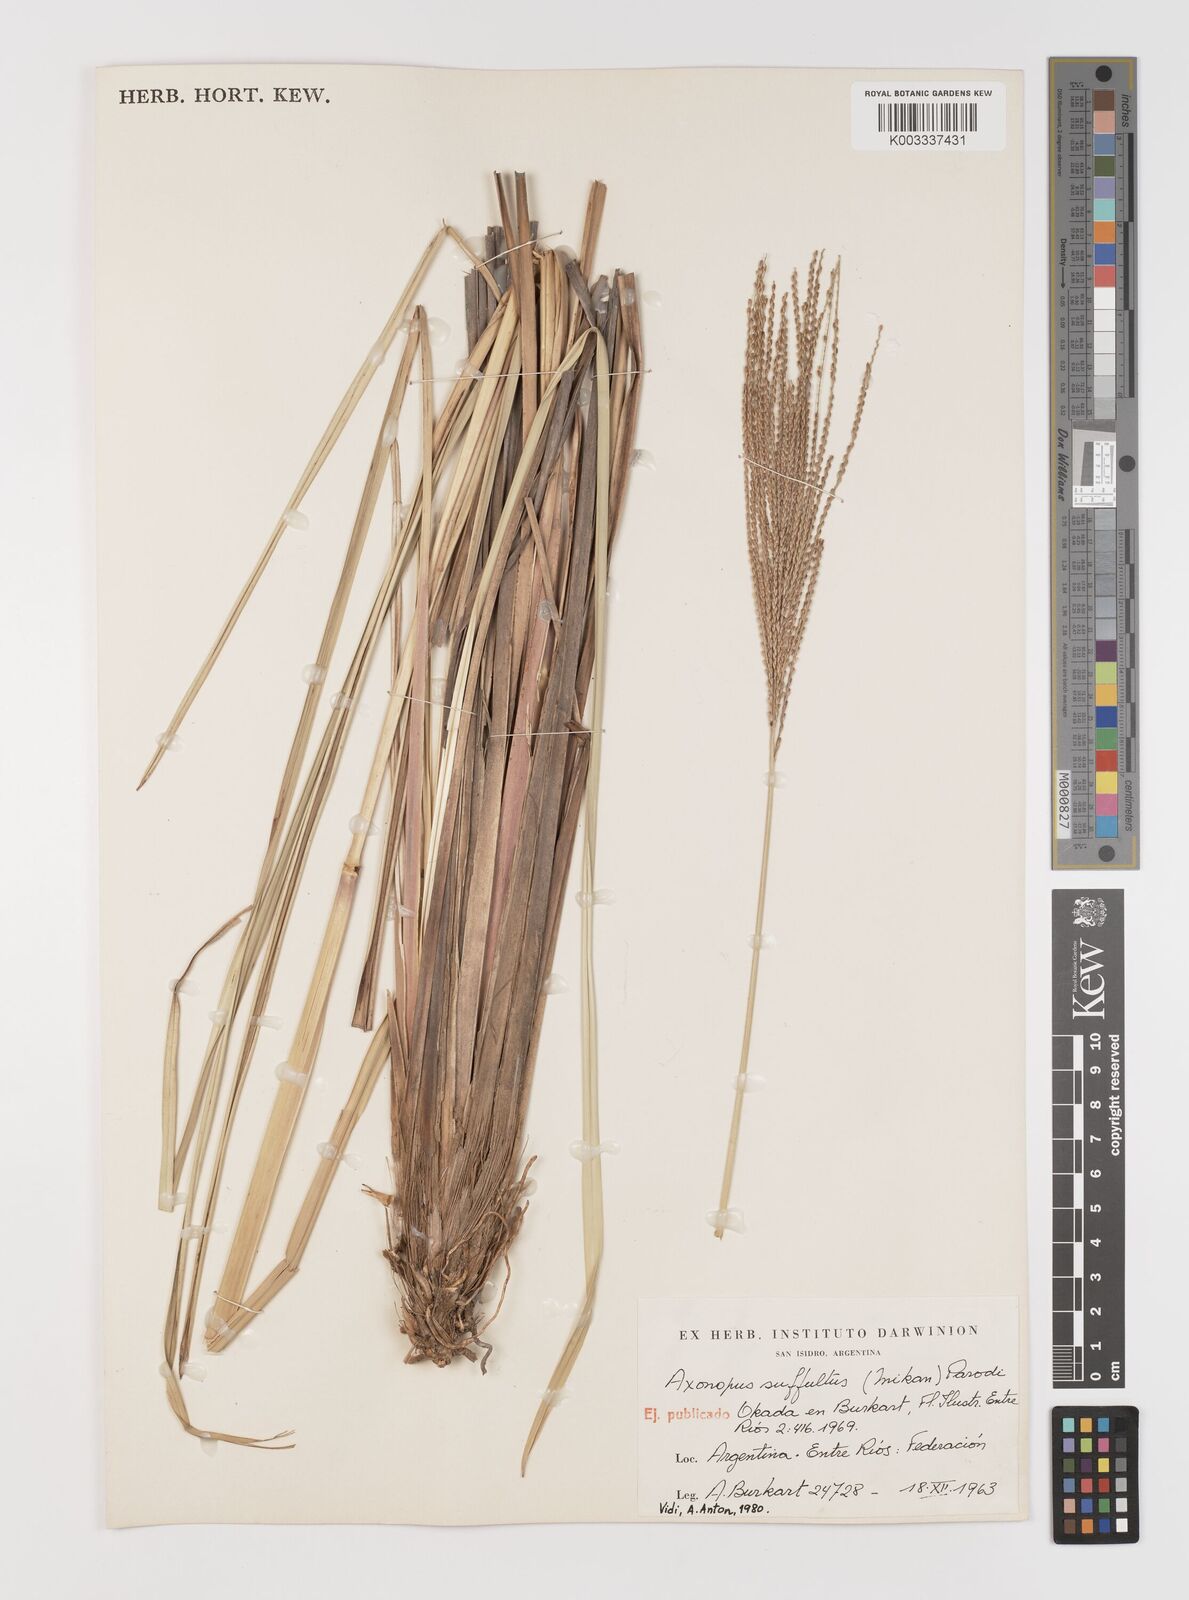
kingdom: Plantae
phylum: Tracheophyta
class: Liliopsida
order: Poales
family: Poaceae
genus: Axonopus
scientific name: Axonopus suffultus
